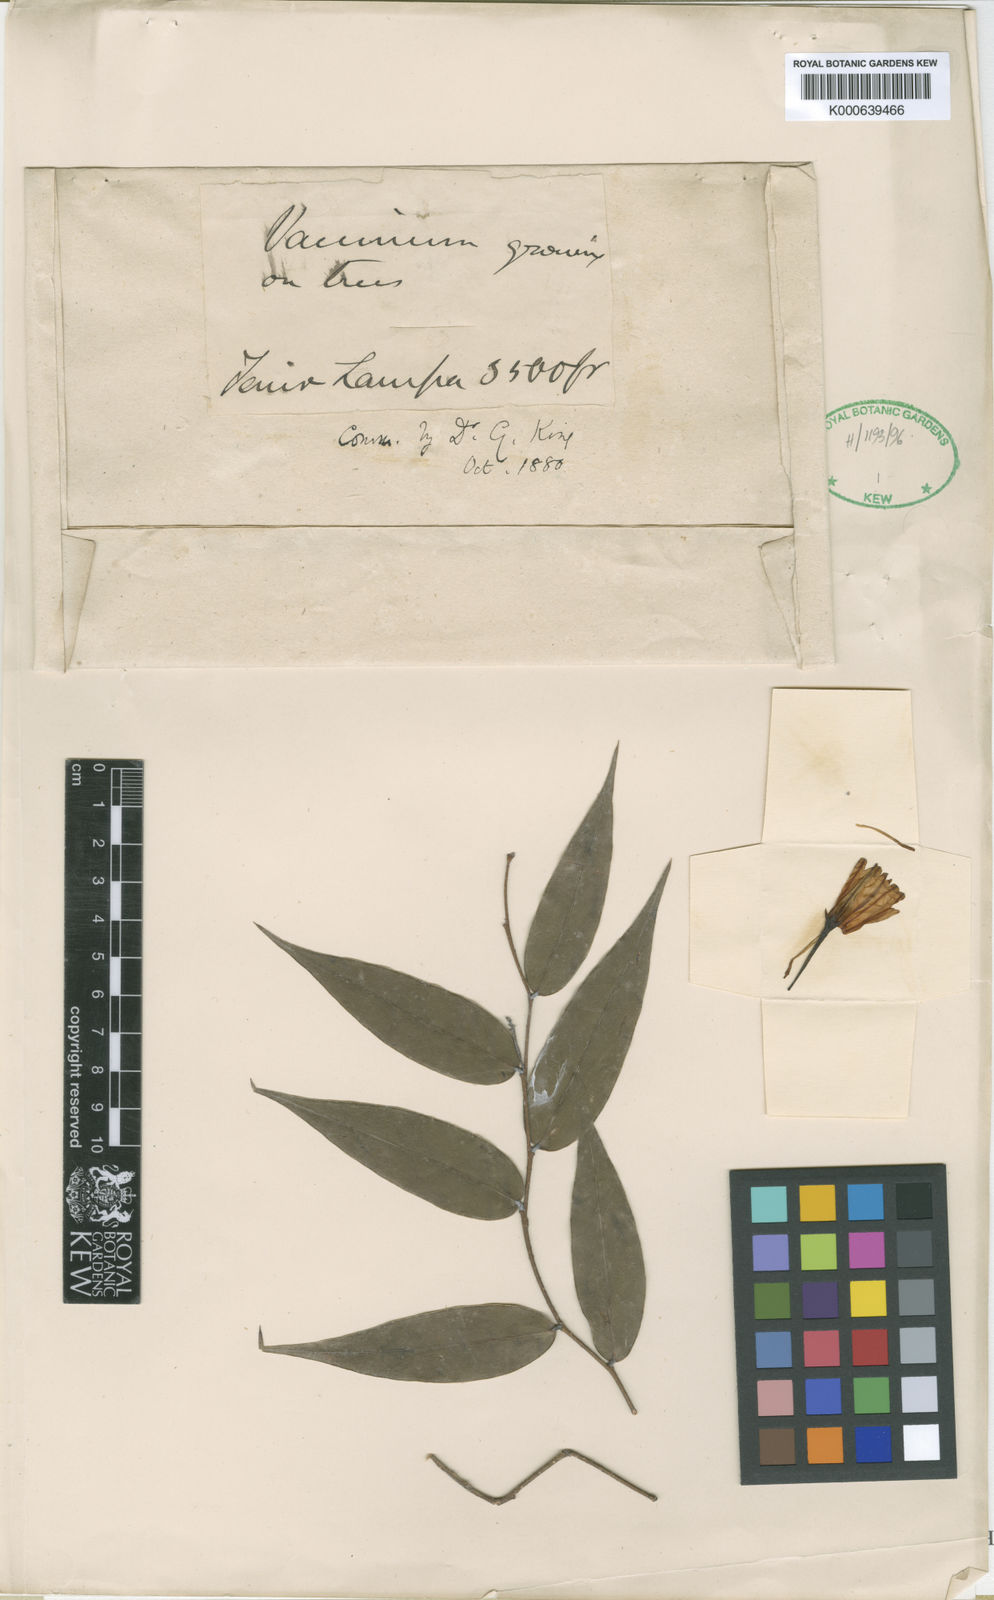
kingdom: Plantae
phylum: Tracheophyta
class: Magnoliopsida
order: Ericales
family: Ericaceae
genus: Agapetes
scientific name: Agapetes hyalocheilos
